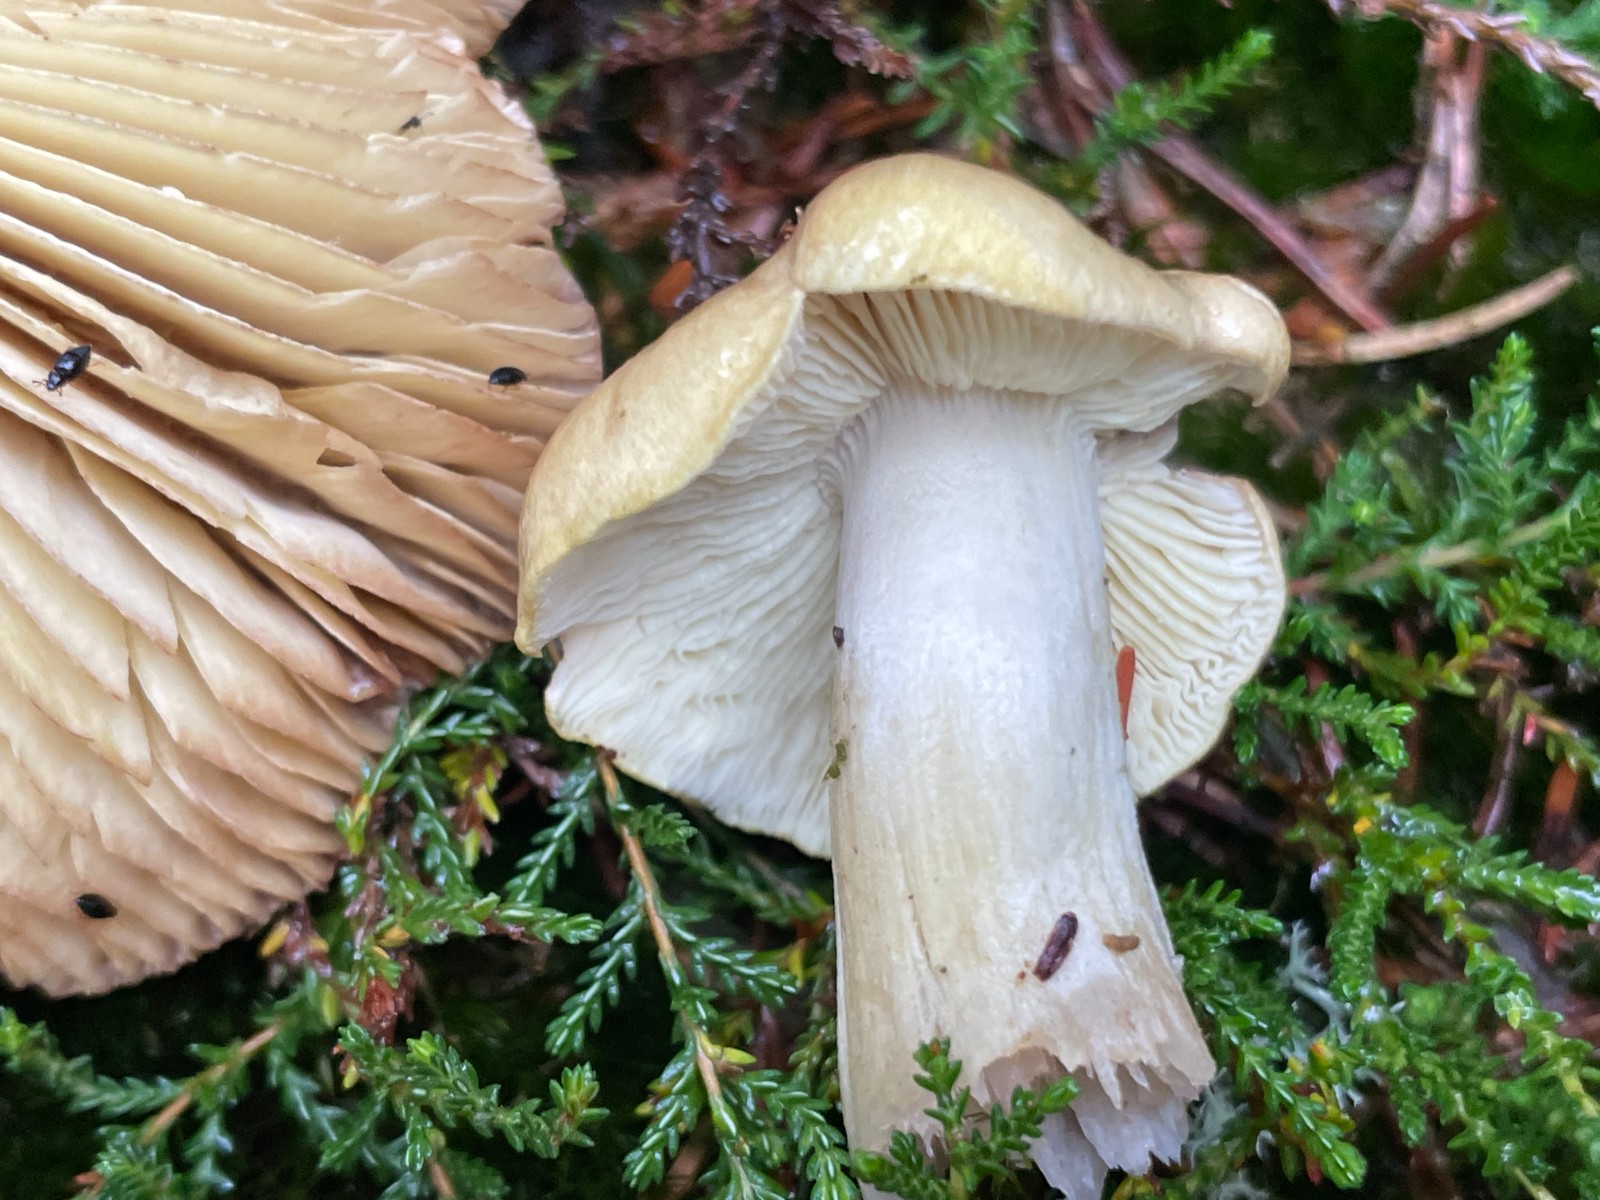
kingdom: Fungi
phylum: Basidiomycota
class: Agaricomycetes
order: Agaricales
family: Tricholomataceae
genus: Tricholoma
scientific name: Tricholoma aestuans
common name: kegle-ridderhat
